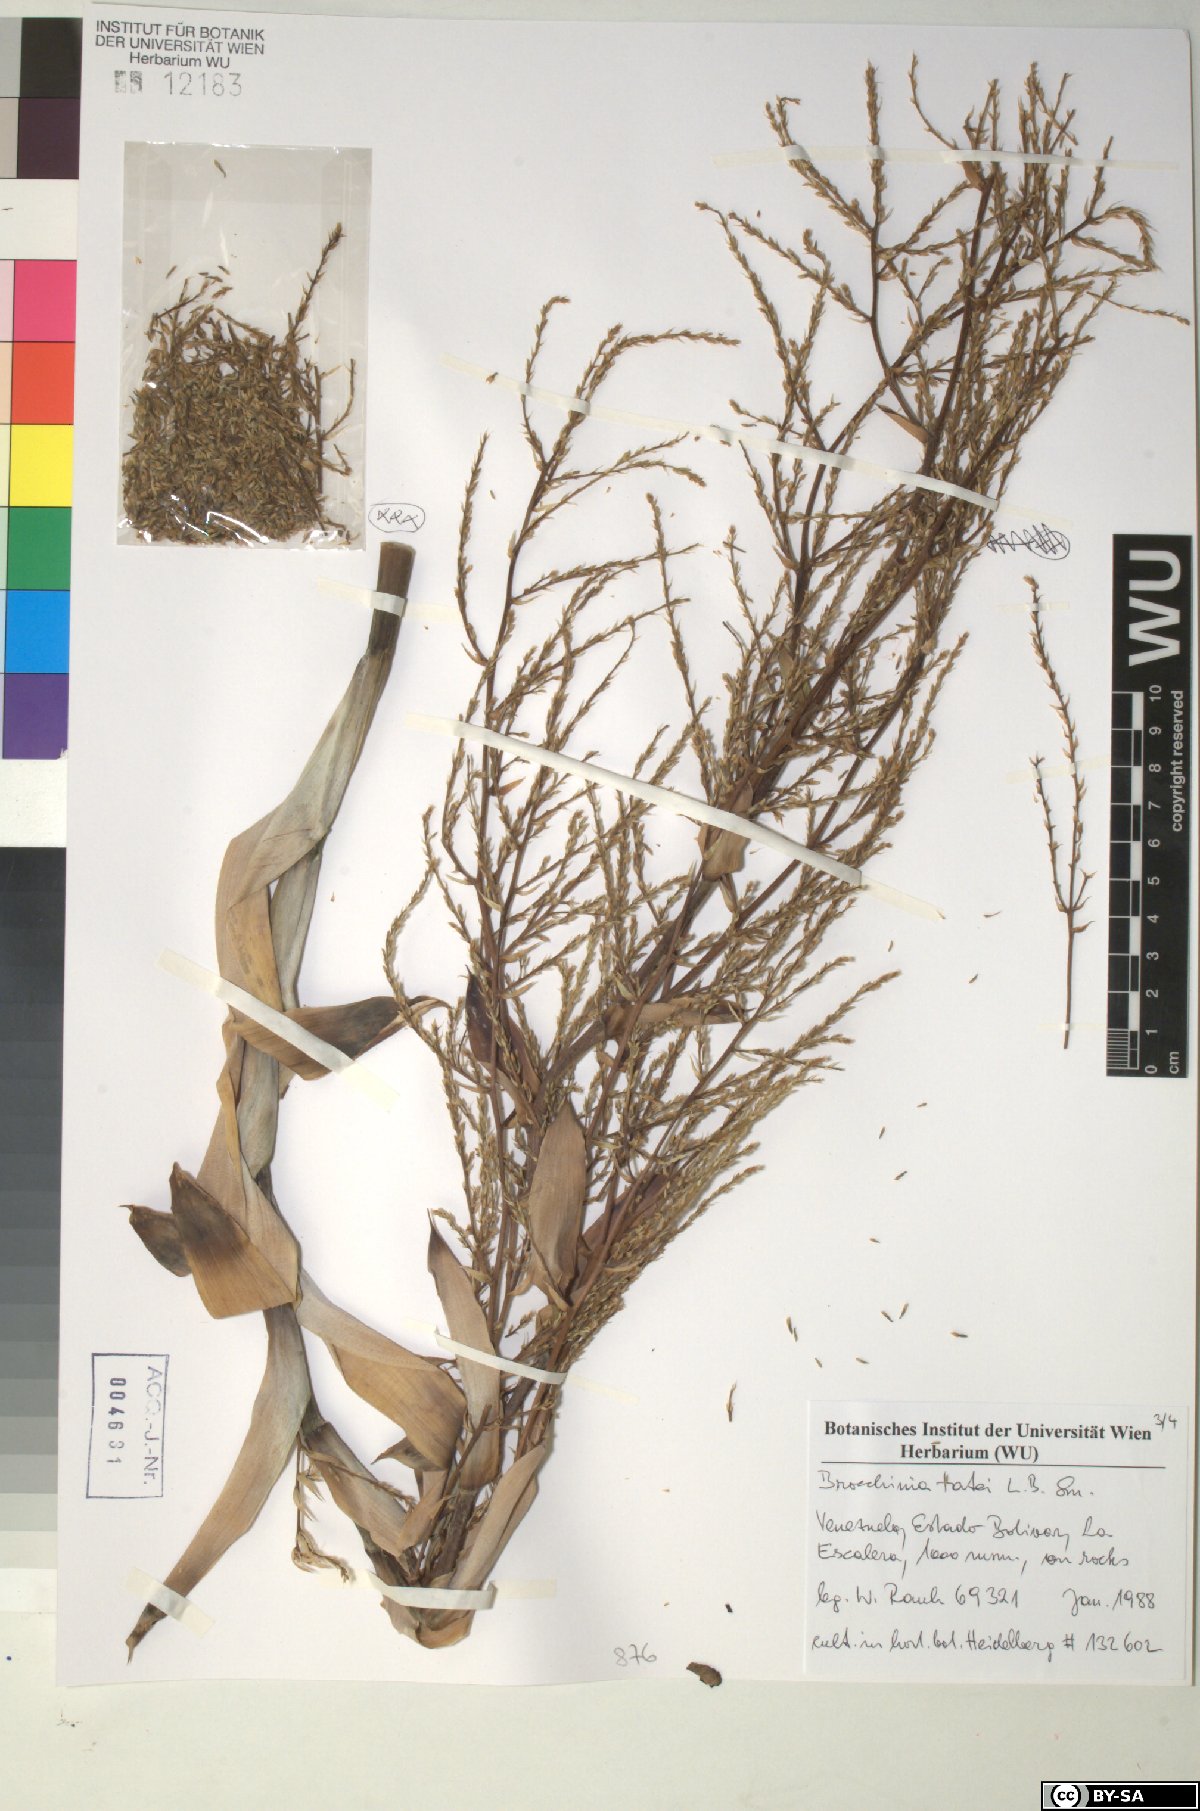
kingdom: Plantae
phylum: Tracheophyta
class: Liliopsida
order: Poales
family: Bromeliaceae
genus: Brocchinia
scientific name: Brocchinia tatei
